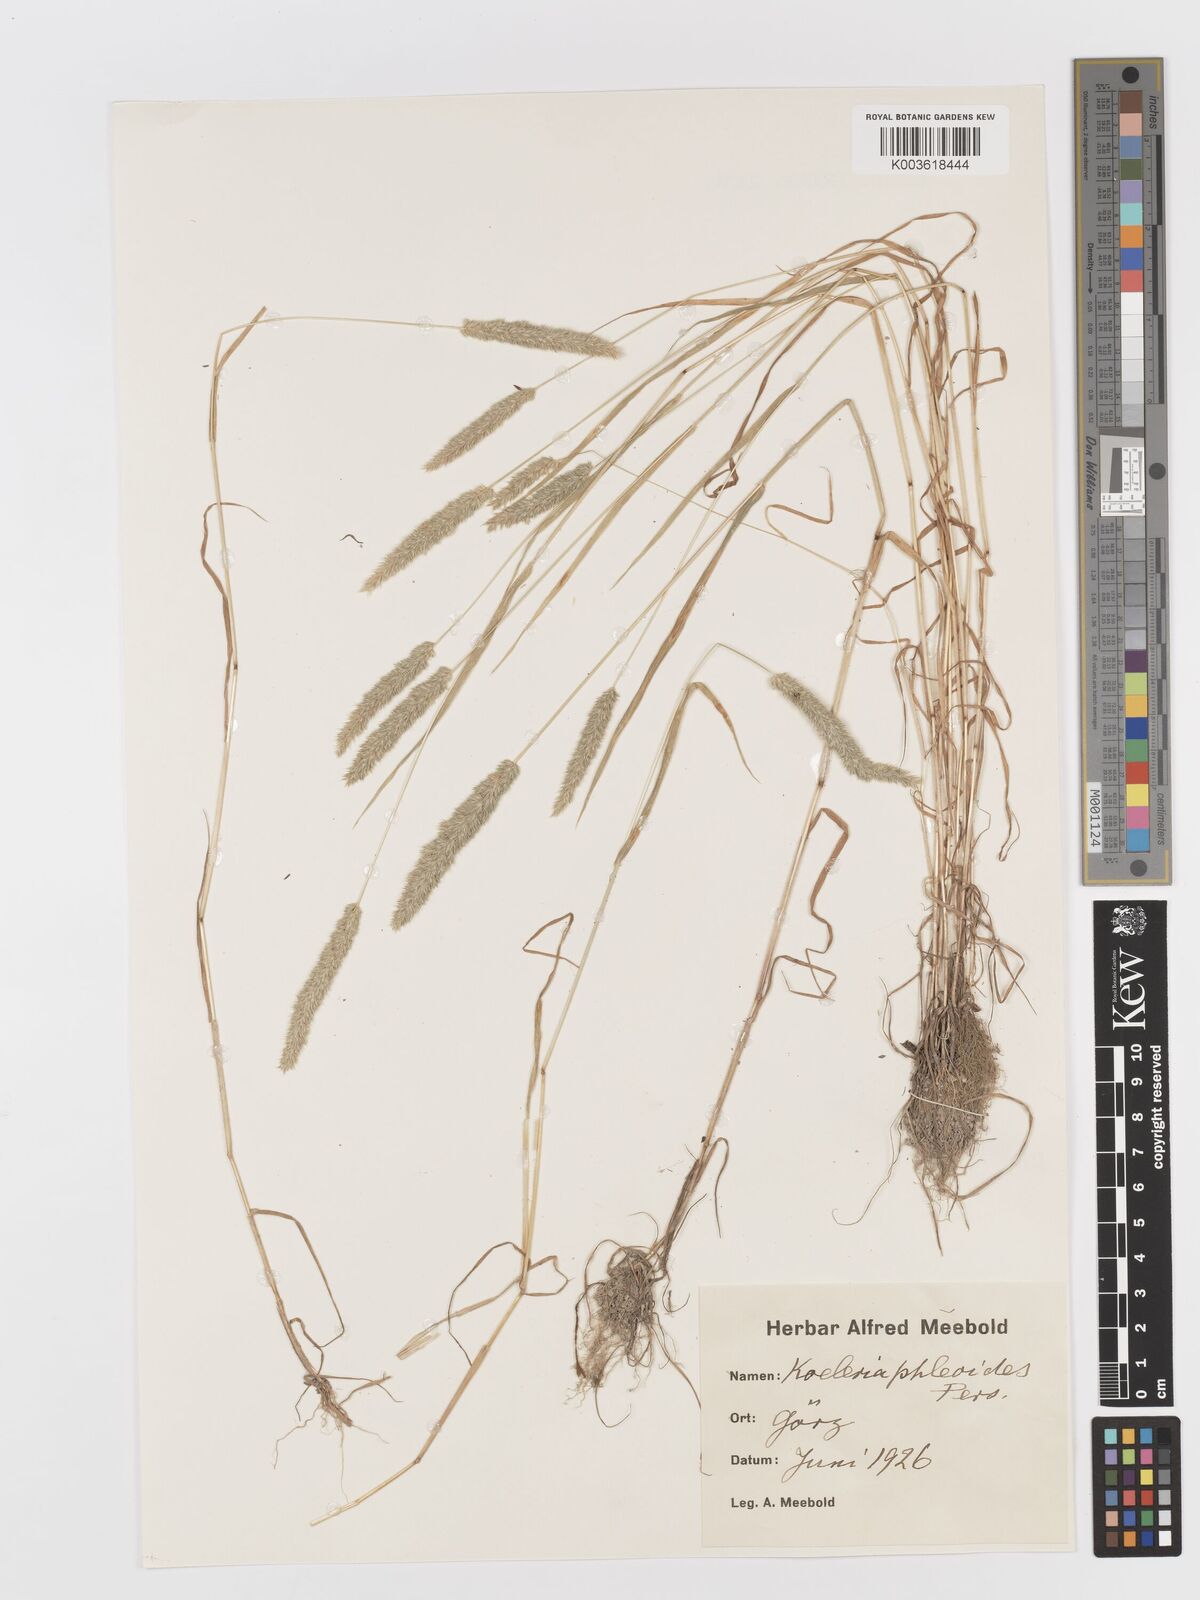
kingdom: Plantae
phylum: Tracheophyta
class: Liliopsida
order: Poales
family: Poaceae
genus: Rostraria
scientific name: Rostraria cristata
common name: Mediterranean hair-grass
